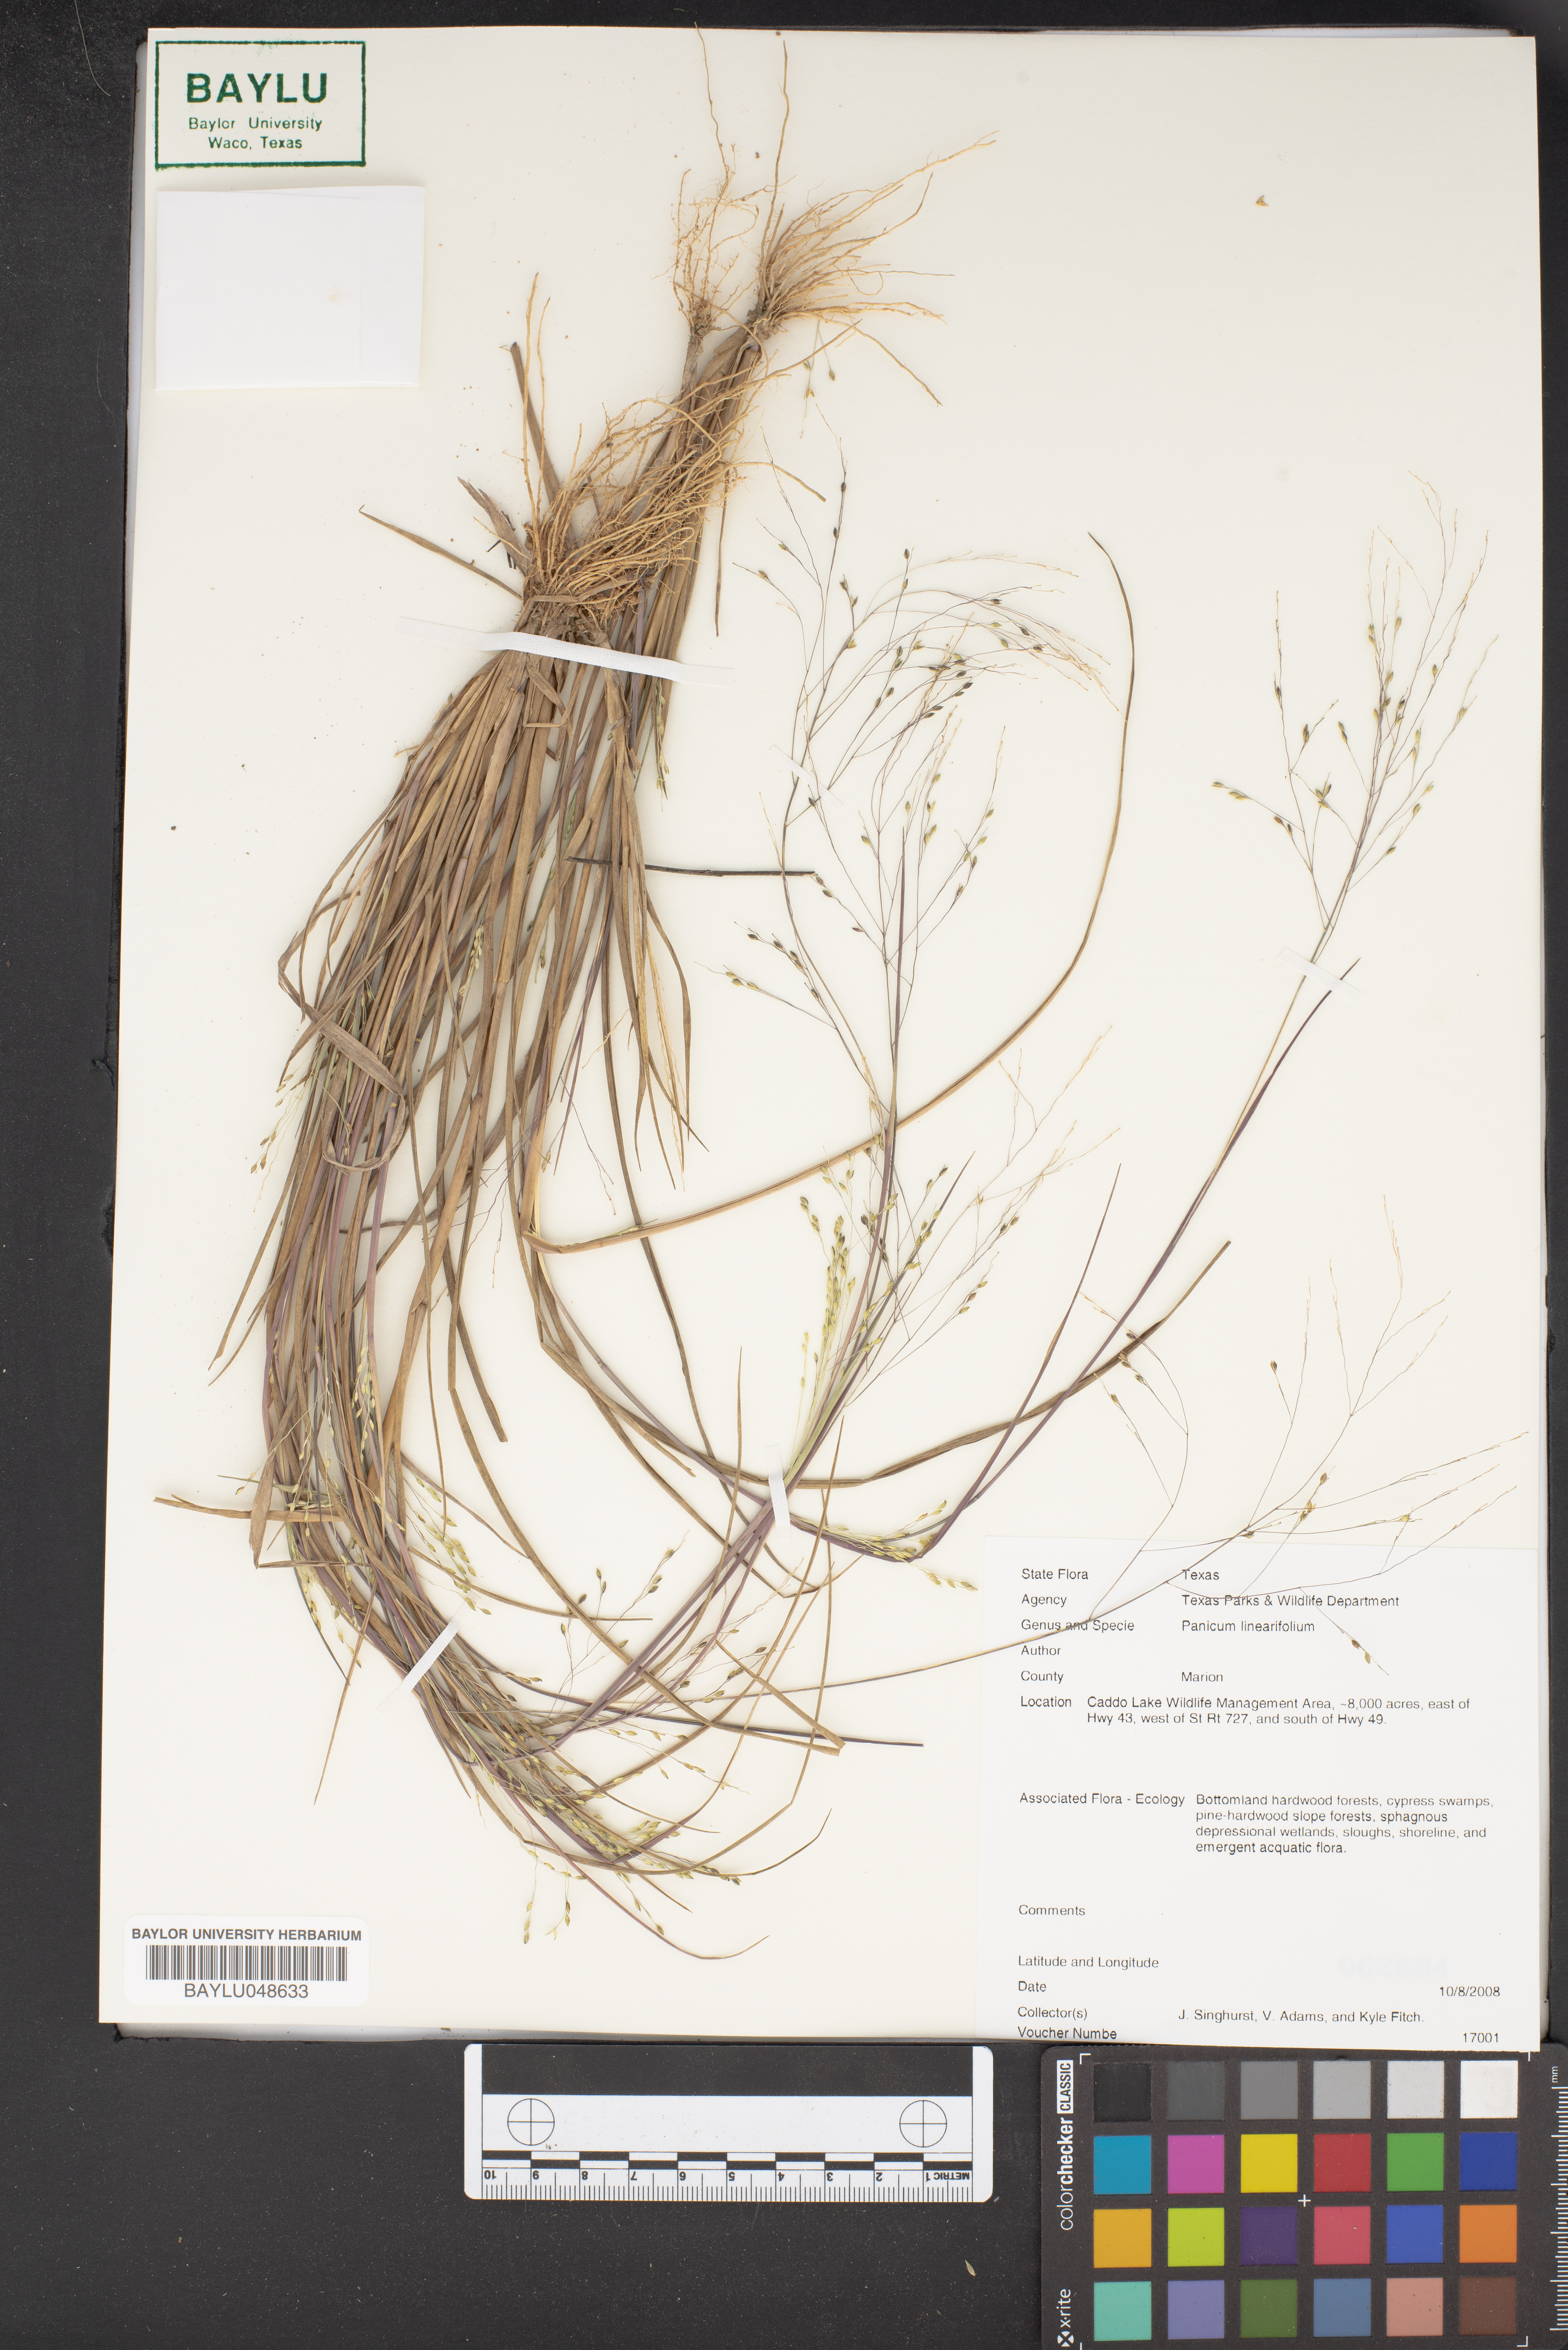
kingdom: Plantae
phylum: Tracheophyta
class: Liliopsida
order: Poales
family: Poaceae
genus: Dichanthelium
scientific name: Dichanthelium linearifolium
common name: Linear-leaved panicgrass
